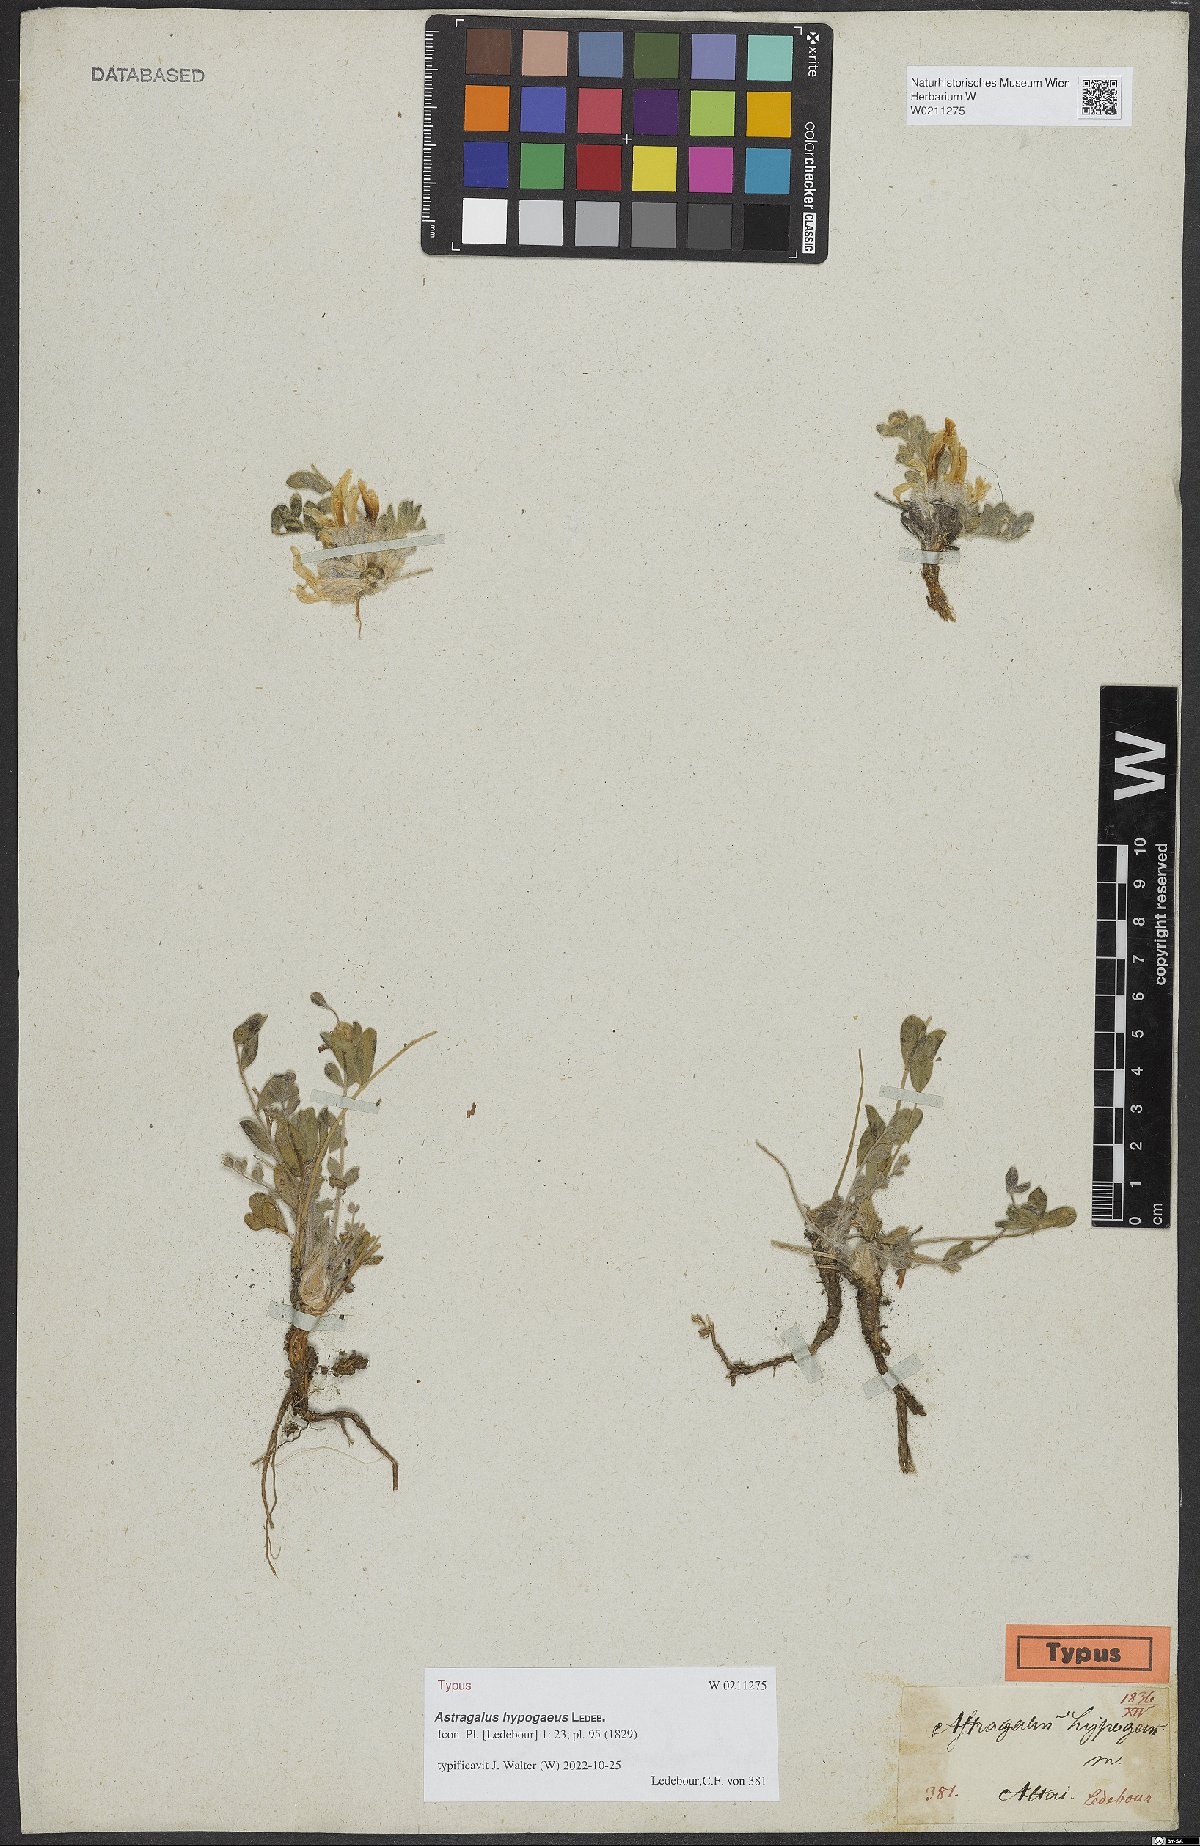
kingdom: Plantae
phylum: Tracheophyta
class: Magnoliopsida
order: Fabales
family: Fabaceae
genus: Astragalus
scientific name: Astragalus hypogaeus
